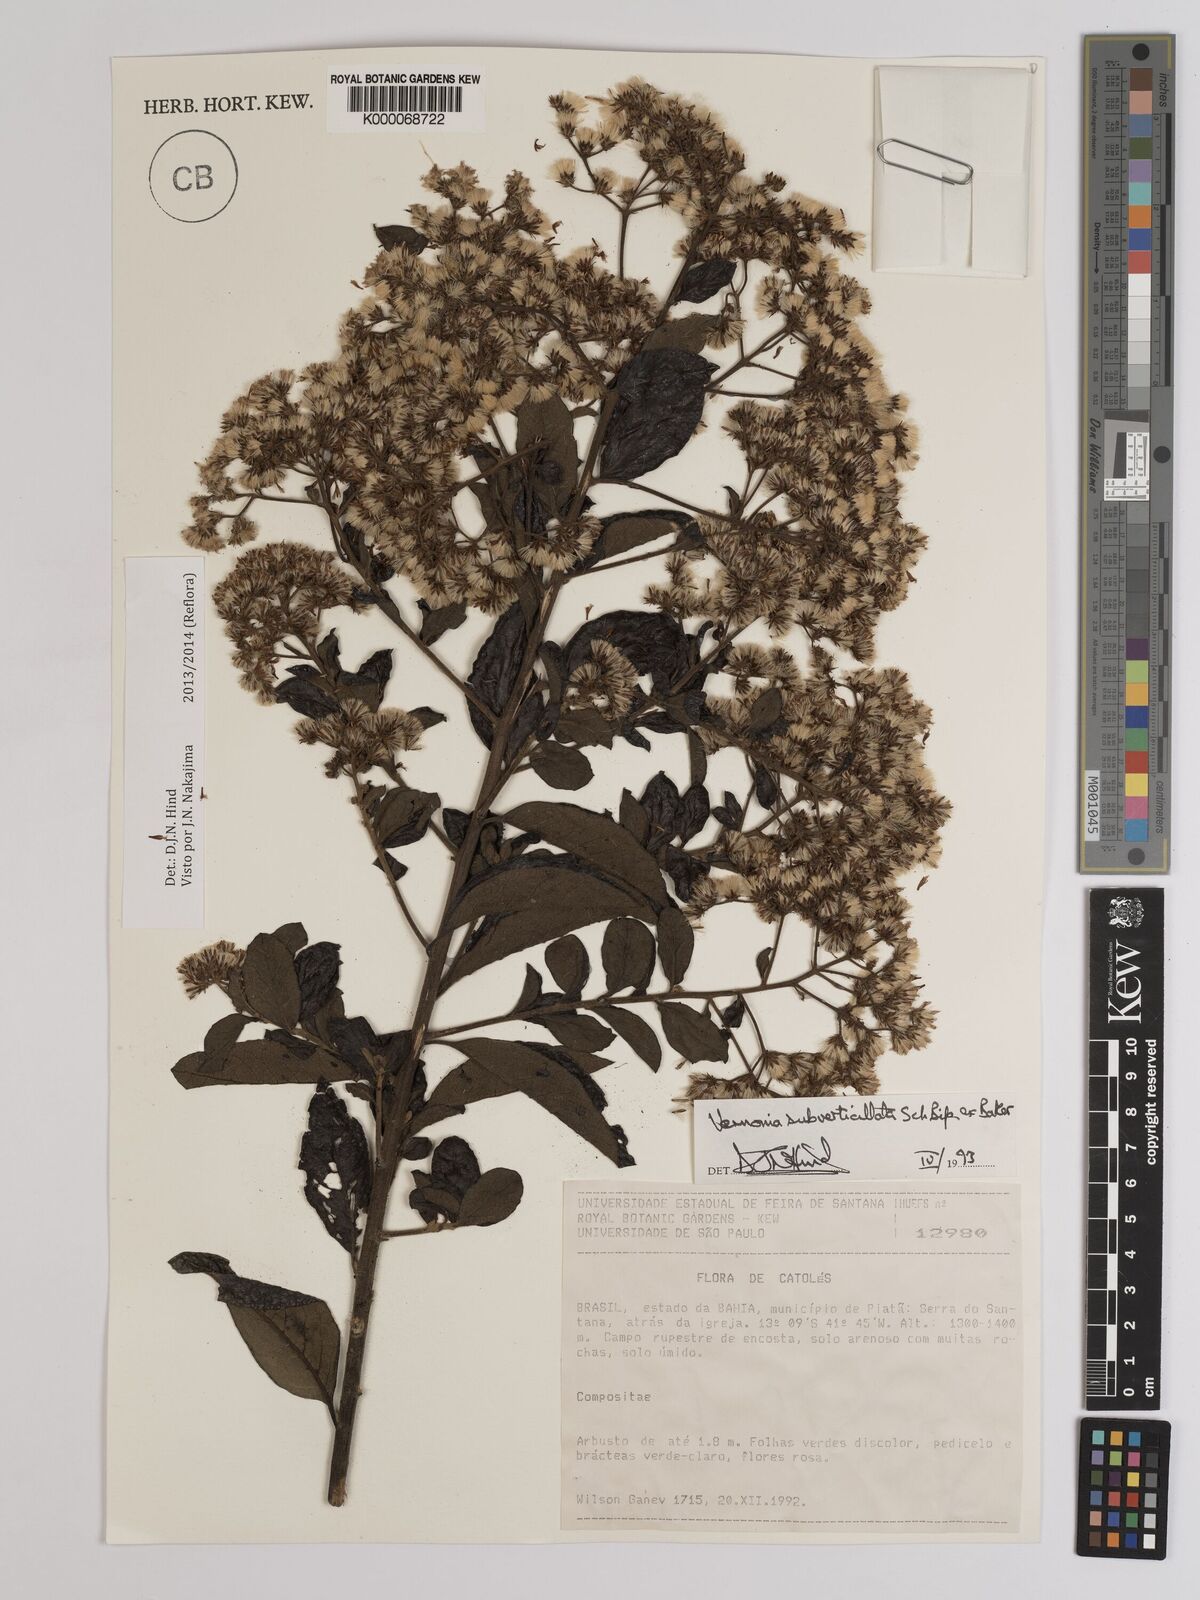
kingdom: Plantae
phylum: Tracheophyta
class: Magnoliopsida
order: Asterales
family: Asteraceae
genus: Vernonia
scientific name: Vernonia
